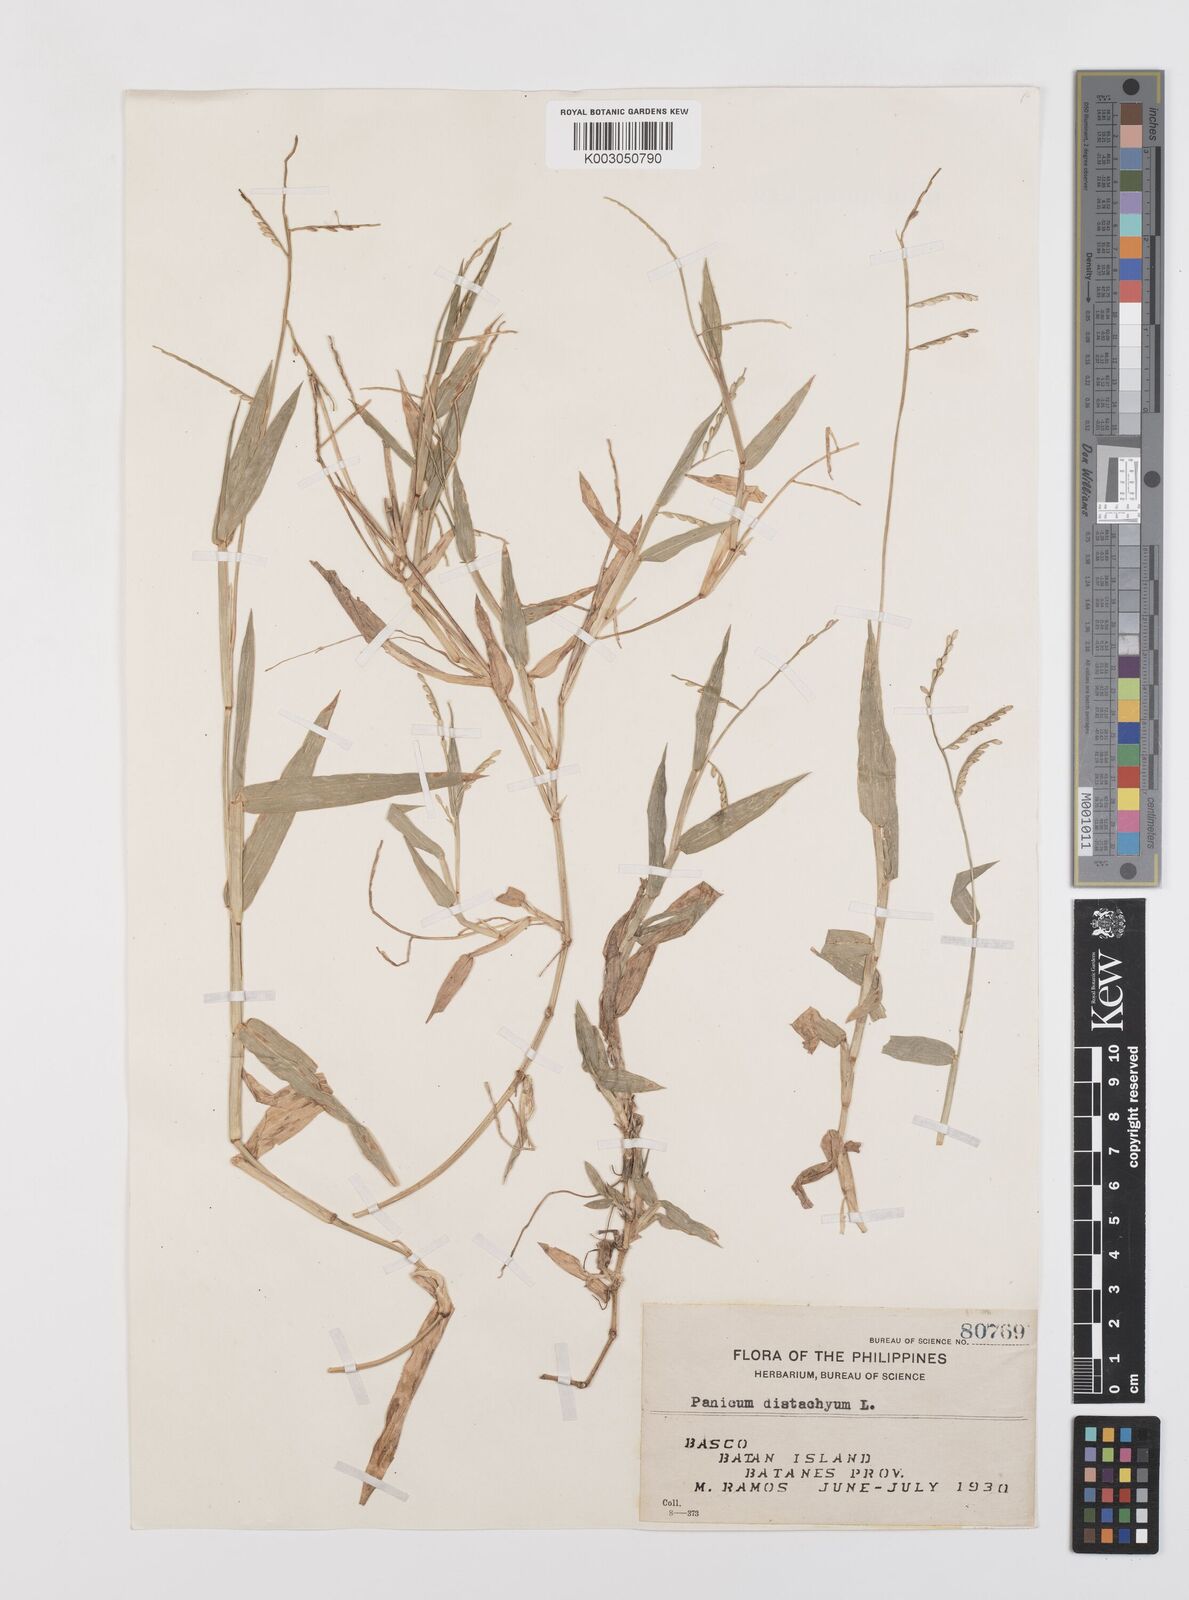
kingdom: Plantae
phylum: Tracheophyta
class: Liliopsida
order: Poales
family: Poaceae
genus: Urochloa
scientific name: Urochloa subquadripara
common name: Armgrass millet
